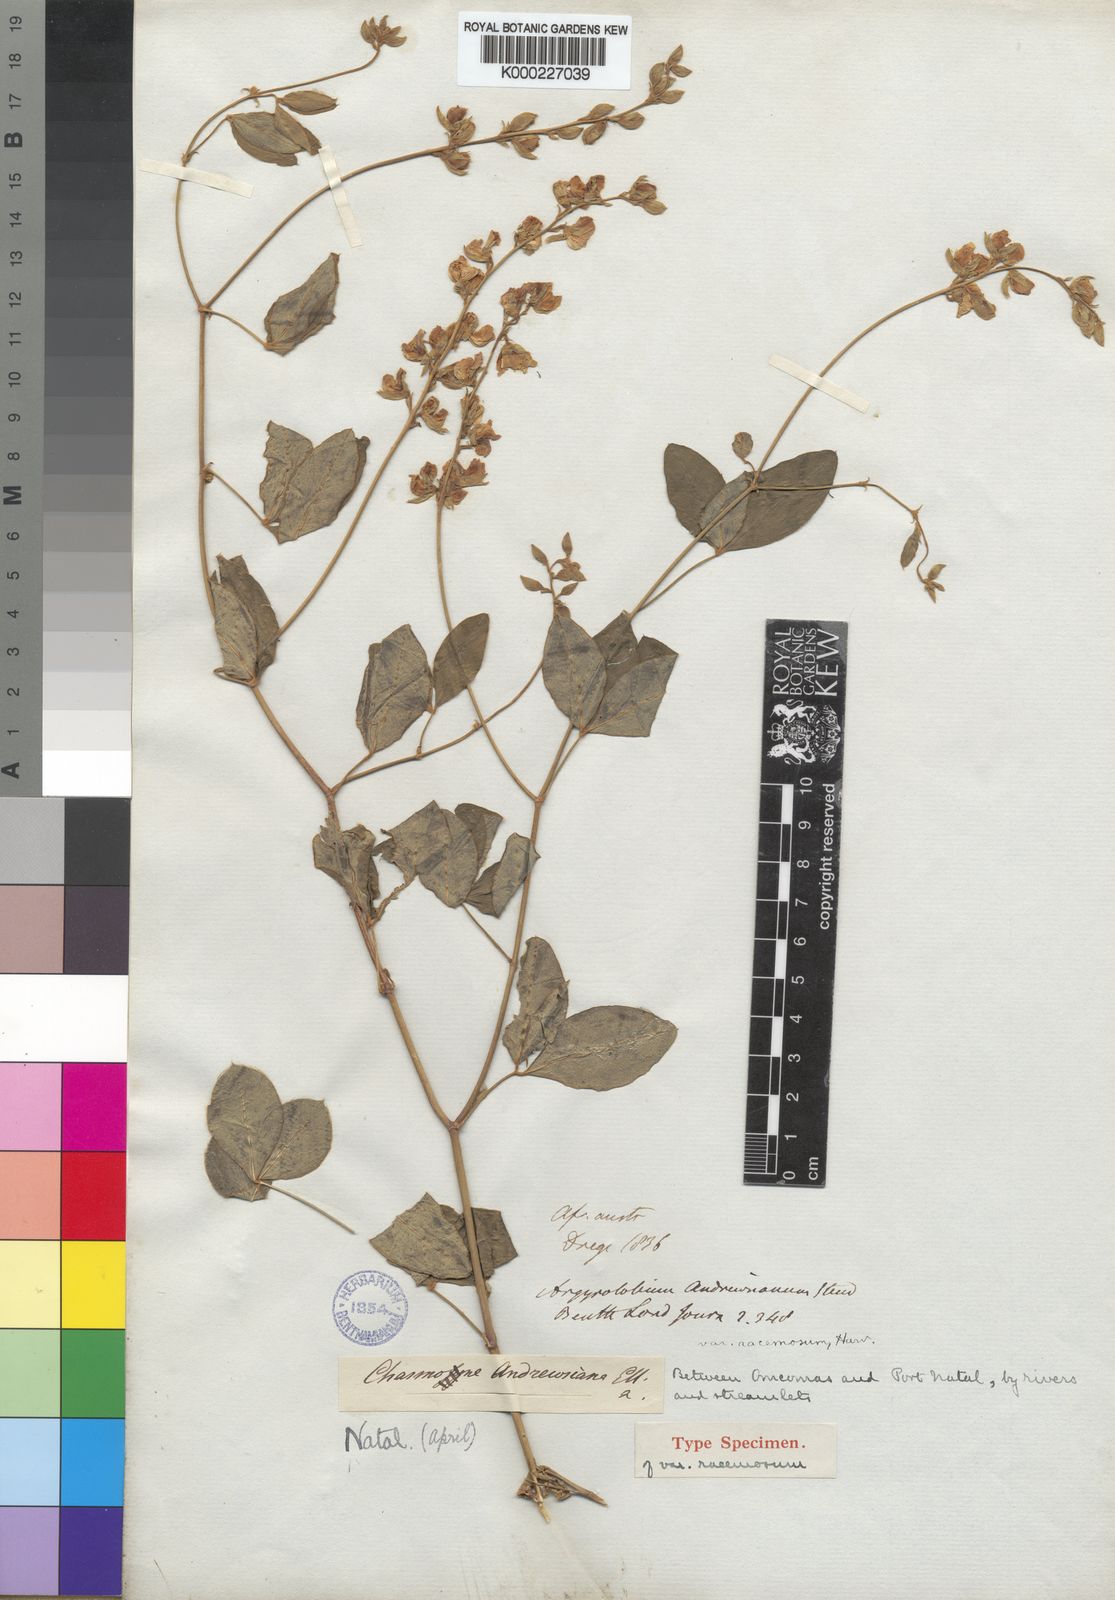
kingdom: Plantae
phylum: Tracheophyta
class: Magnoliopsida
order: Fabales
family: Fabaceae
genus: Argyrolobium
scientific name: Argyrolobium tomentosum
